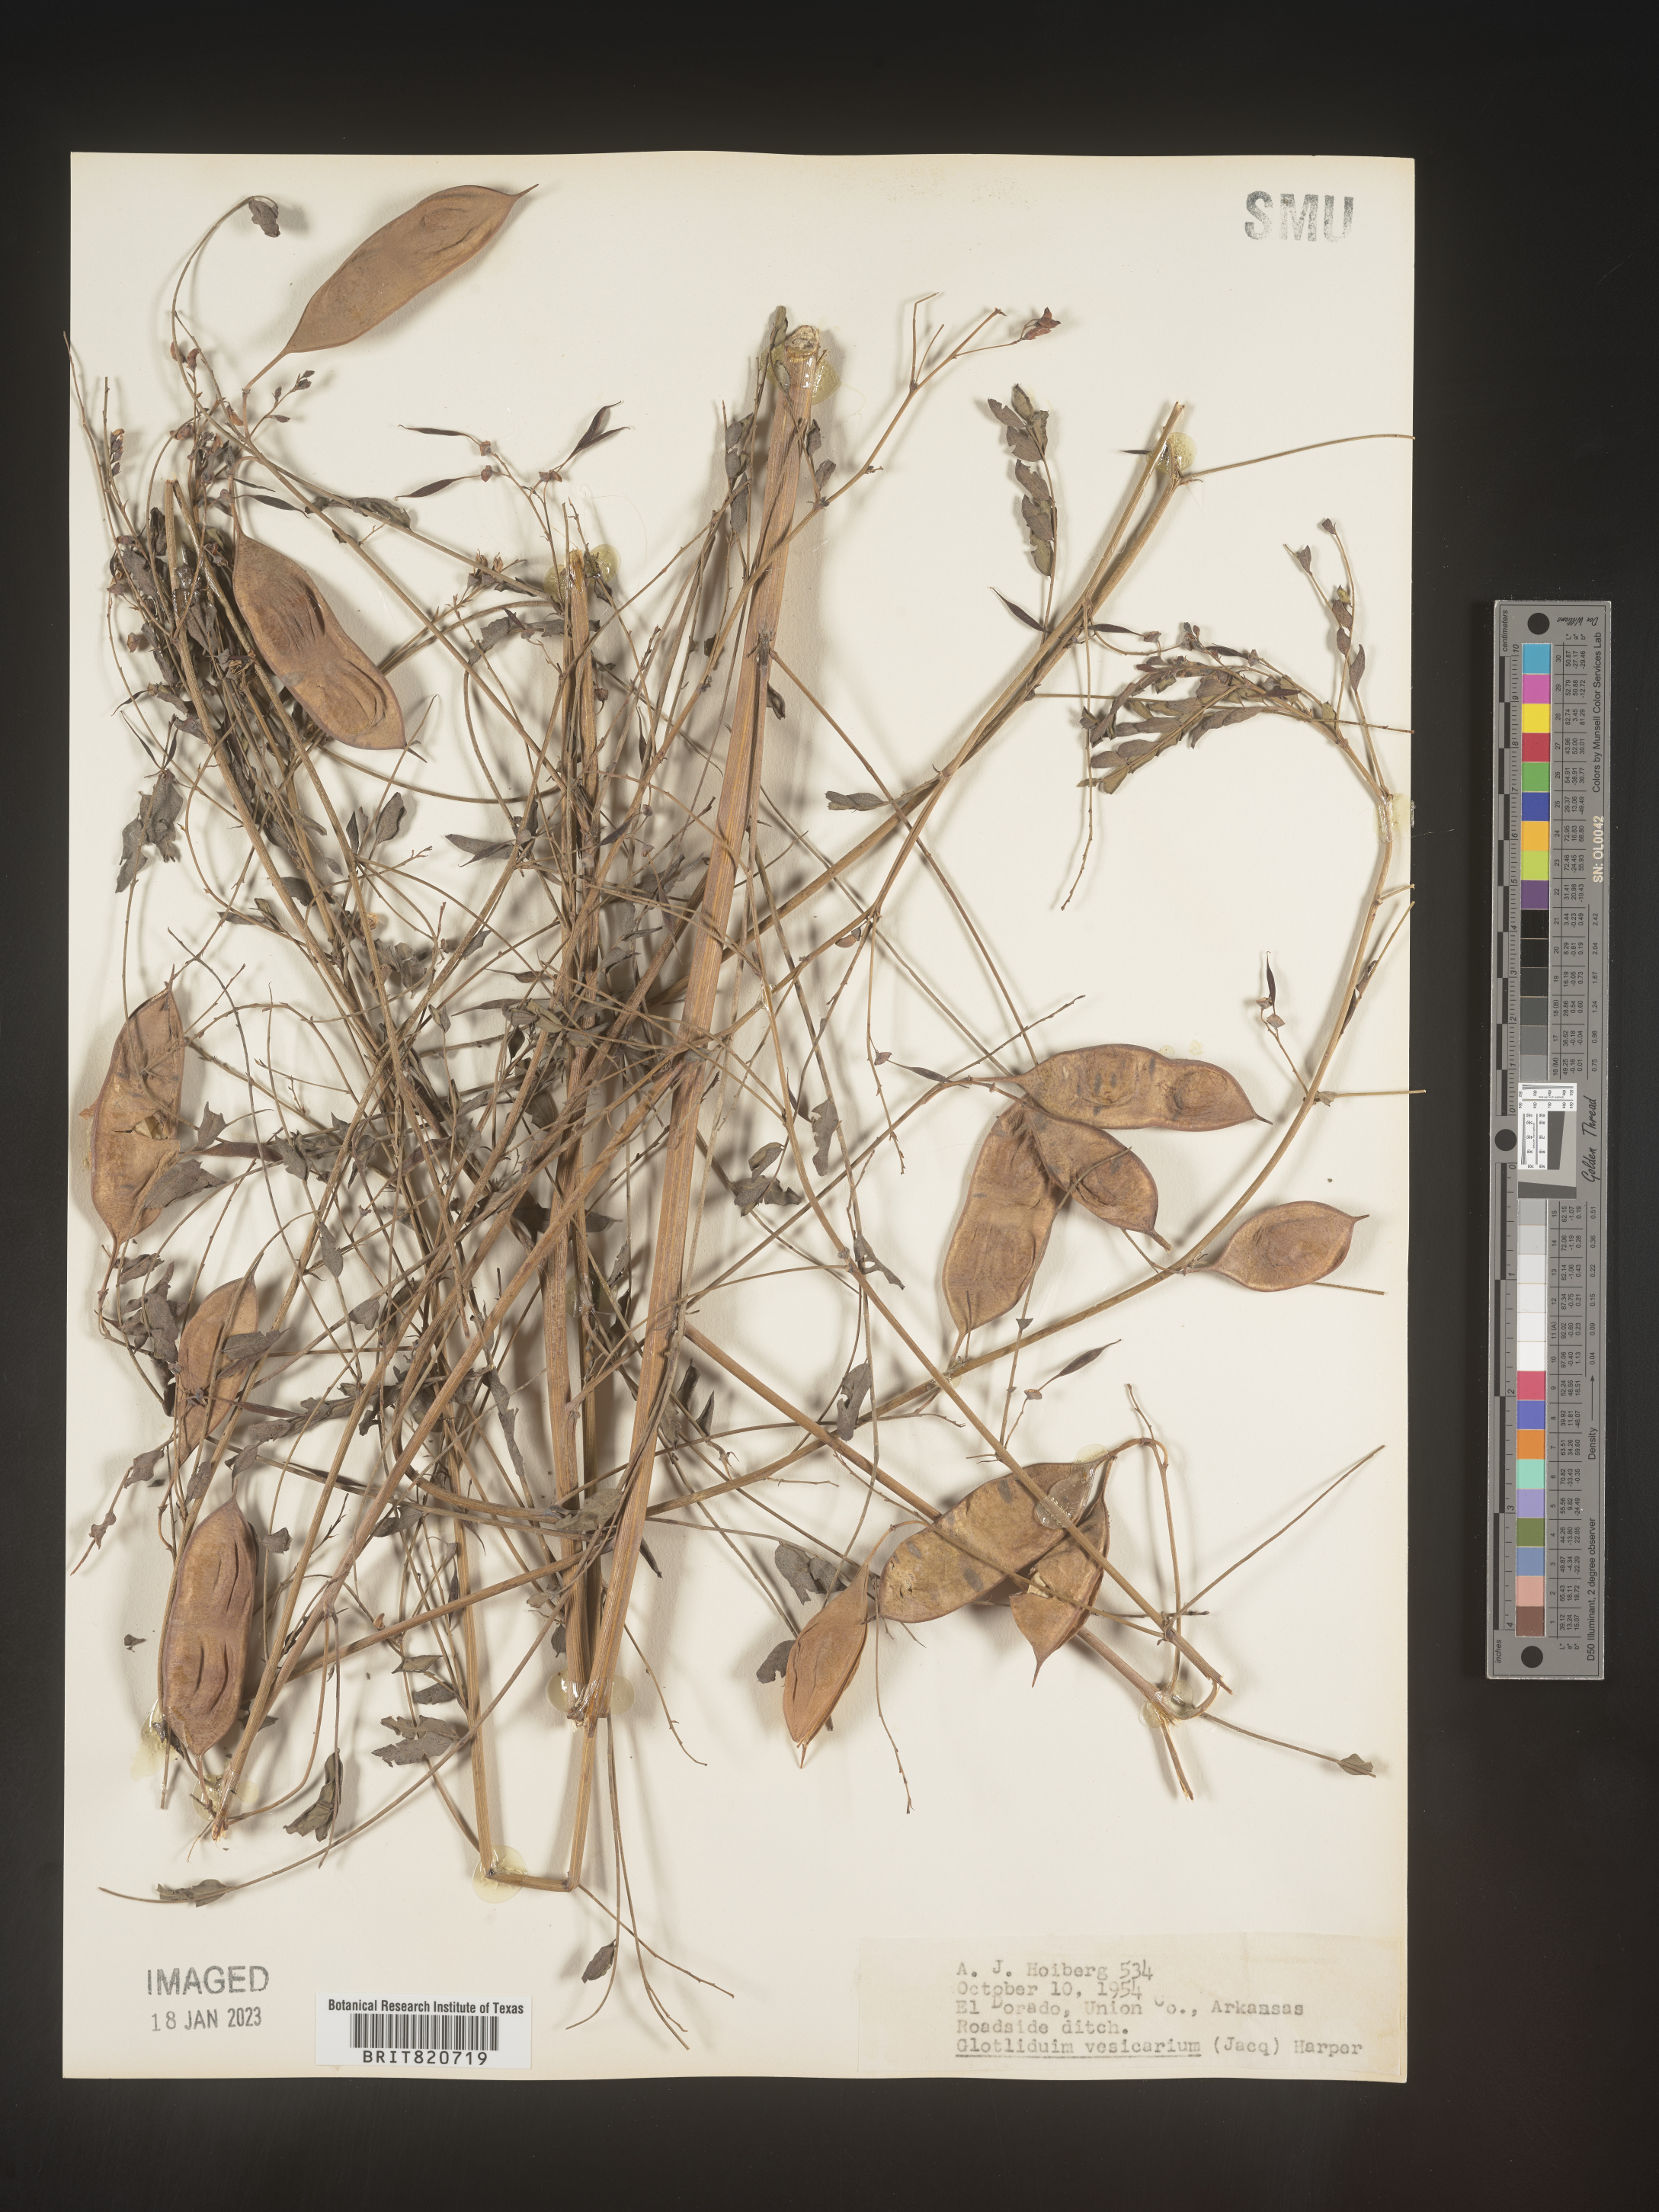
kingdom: Plantae
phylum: Tracheophyta
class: Magnoliopsida
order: Fabales
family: Fabaceae
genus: Sesbania
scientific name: Sesbania vesicaria
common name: Bagpod
